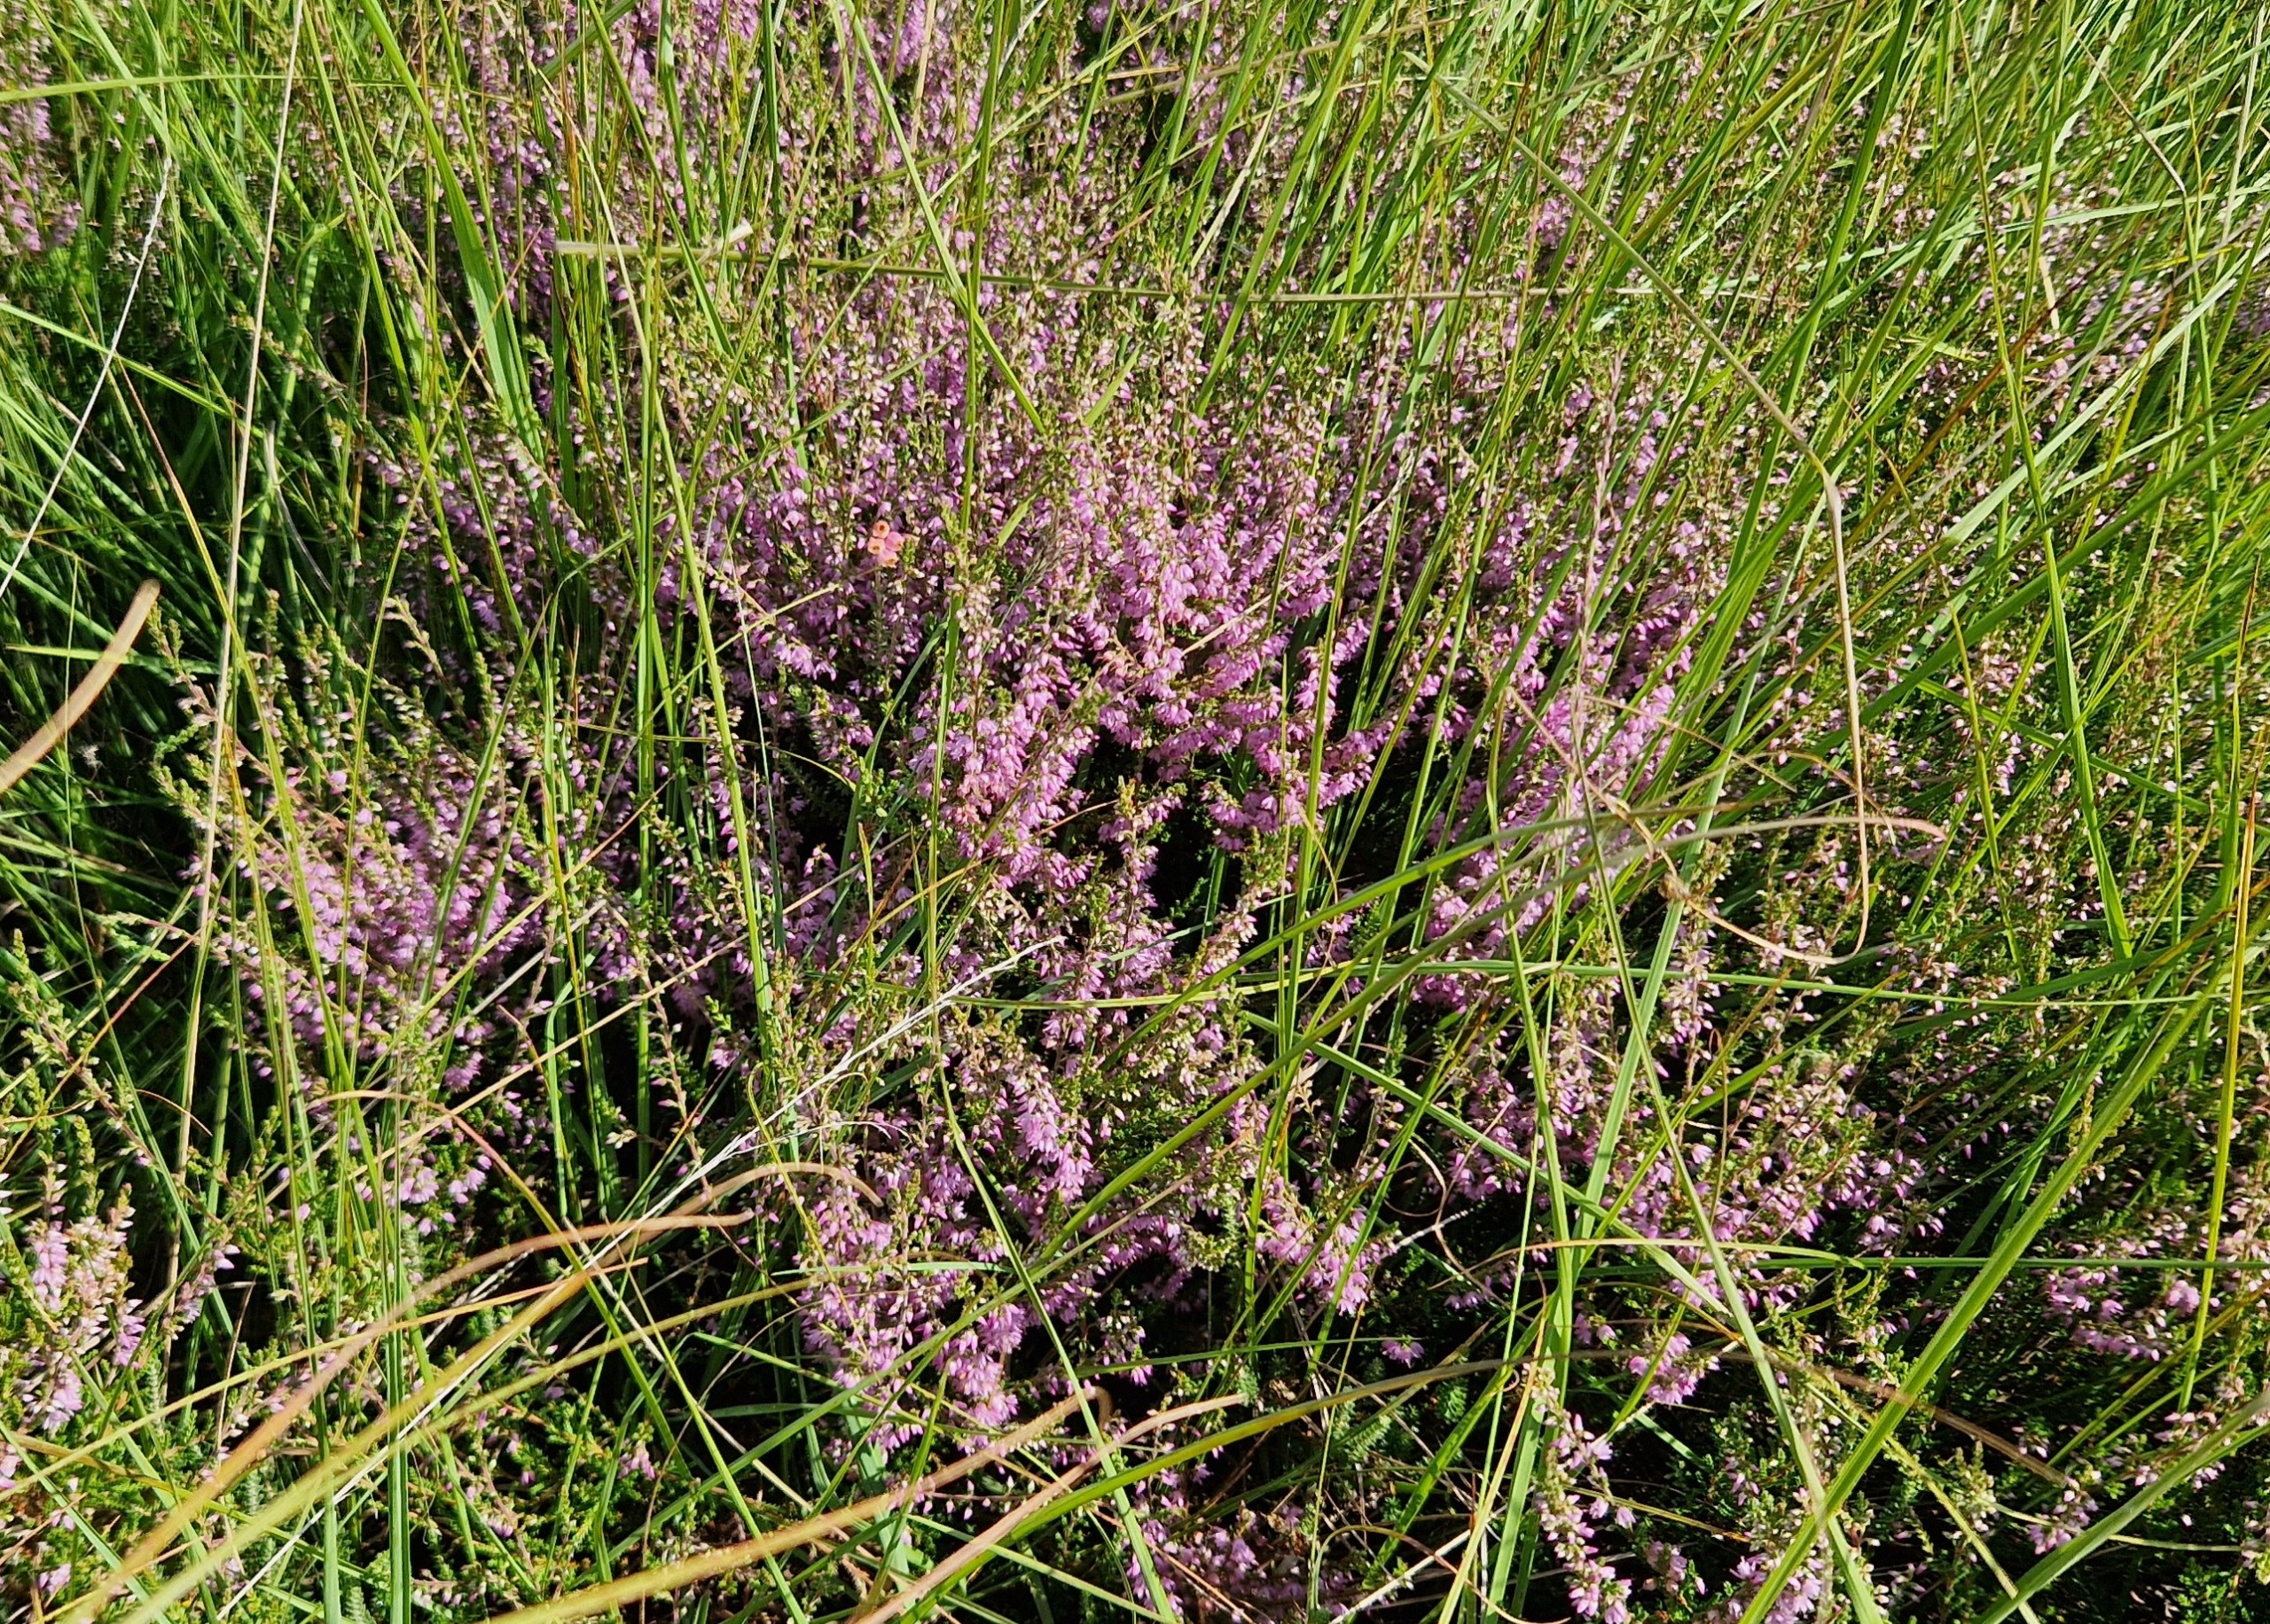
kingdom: Plantae
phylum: Tracheophyta
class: Magnoliopsida
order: Ericales
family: Ericaceae
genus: Calluna
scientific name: Calluna vulgaris
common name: Hedelyng
